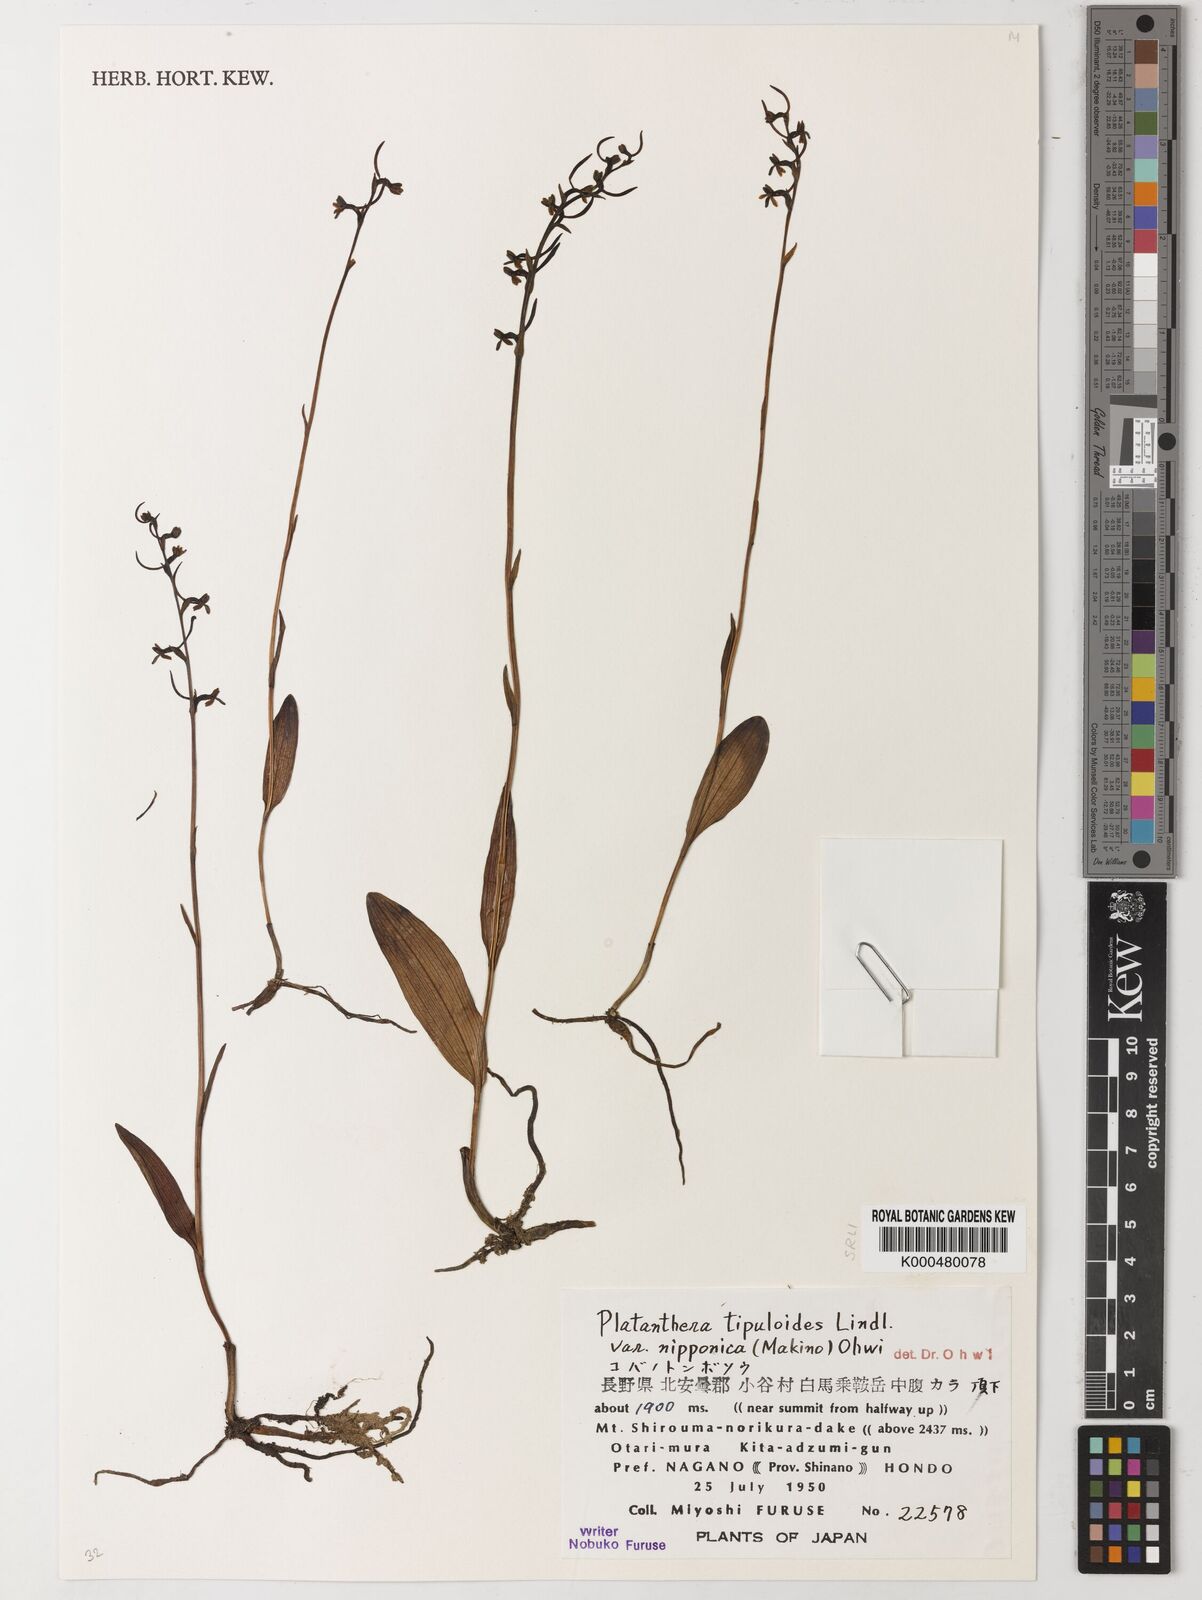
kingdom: Plantae
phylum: Tracheophyta
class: Liliopsida
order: Asparagales
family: Orchidaceae
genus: Platanthera
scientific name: Platanthera nipponica
